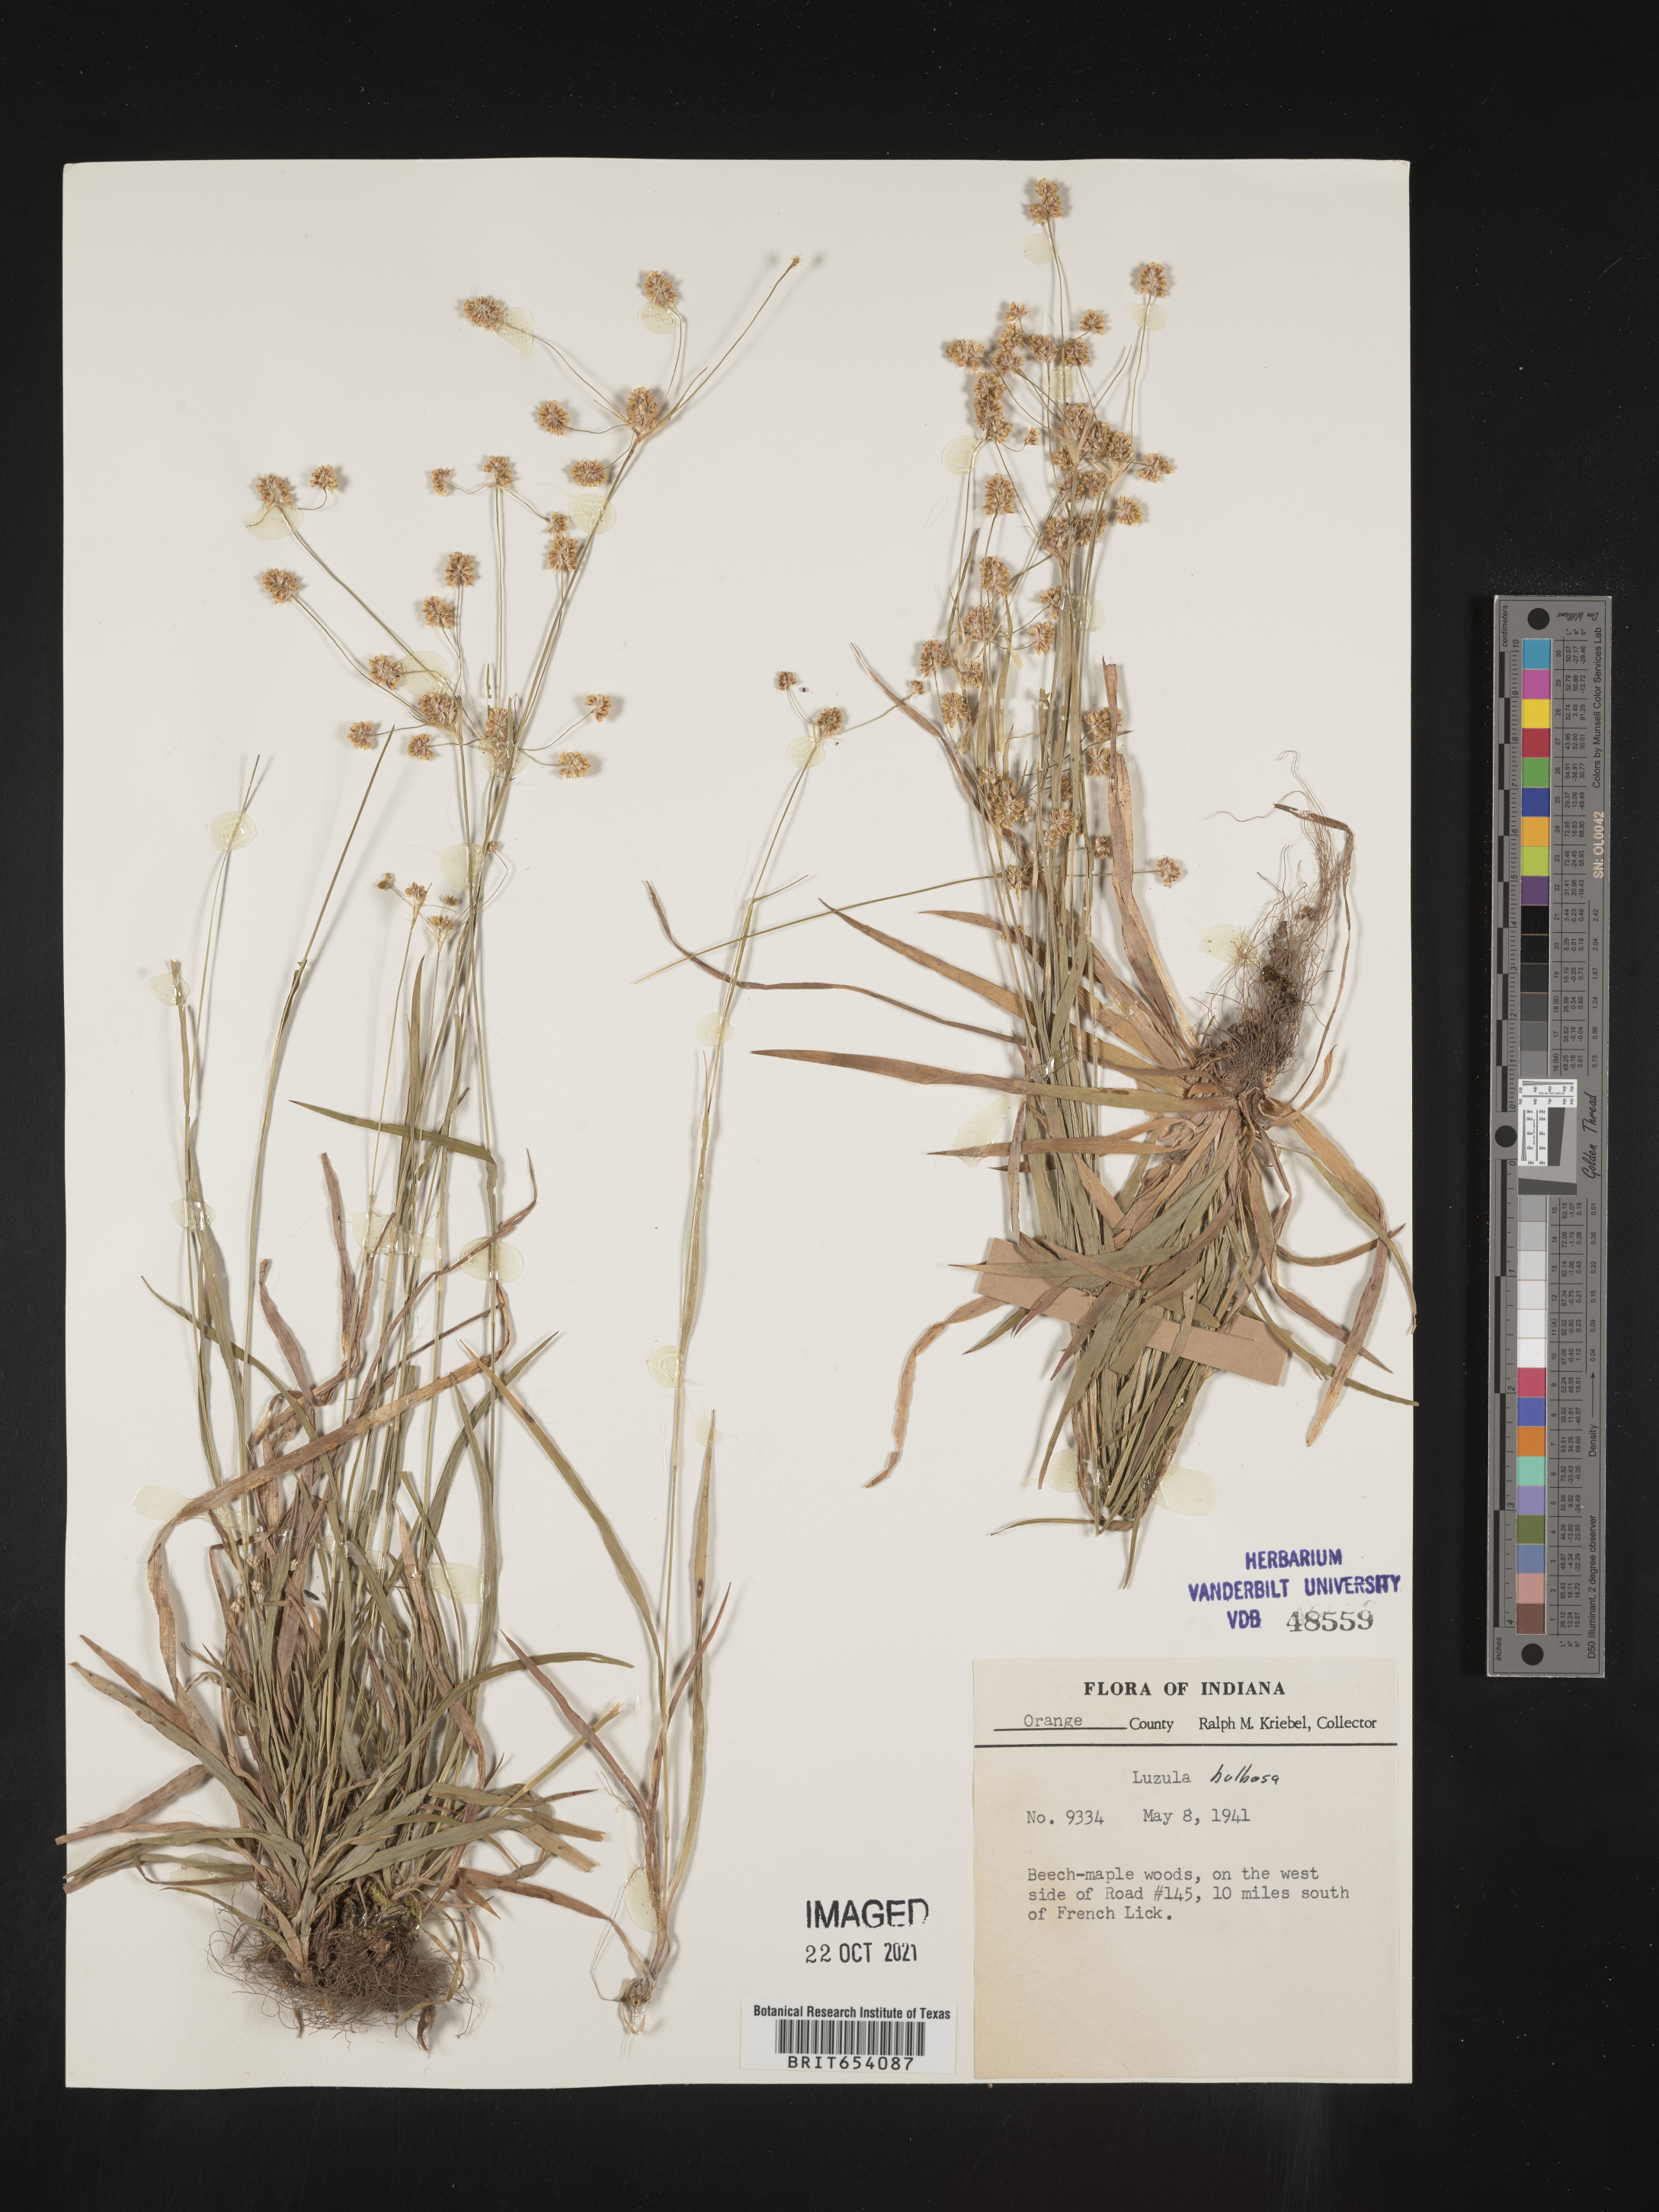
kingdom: Plantae
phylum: Tracheophyta
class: Liliopsida
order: Poales
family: Juncaceae
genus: Luzula
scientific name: Luzula bulbosa
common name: Bulbous woodrush
